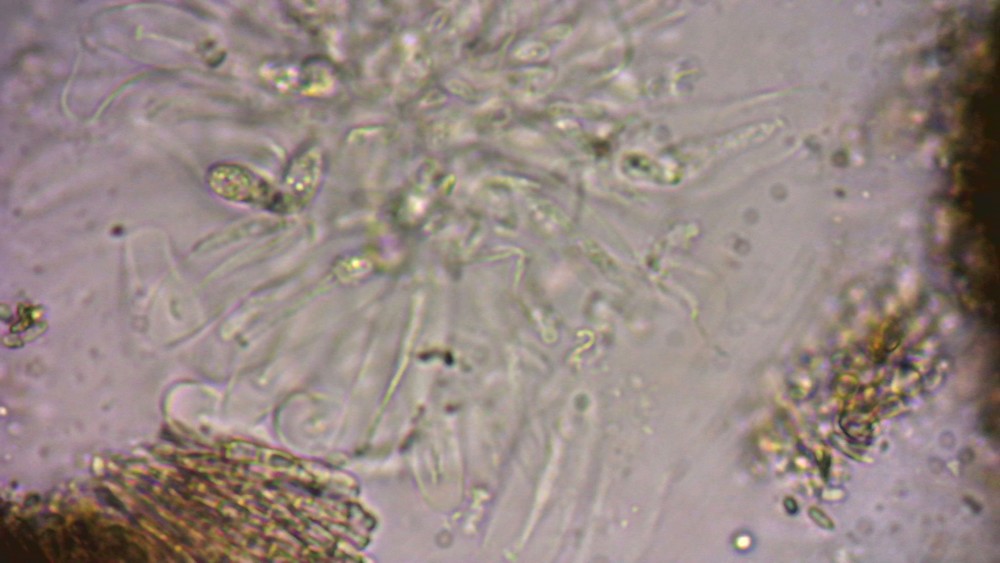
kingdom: Fungi
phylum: Ascomycota
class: Eurotiomycetes
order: Chaetothyriales
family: Herpotrichiellaceae
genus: Capronia
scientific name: Capronia nigerrima
